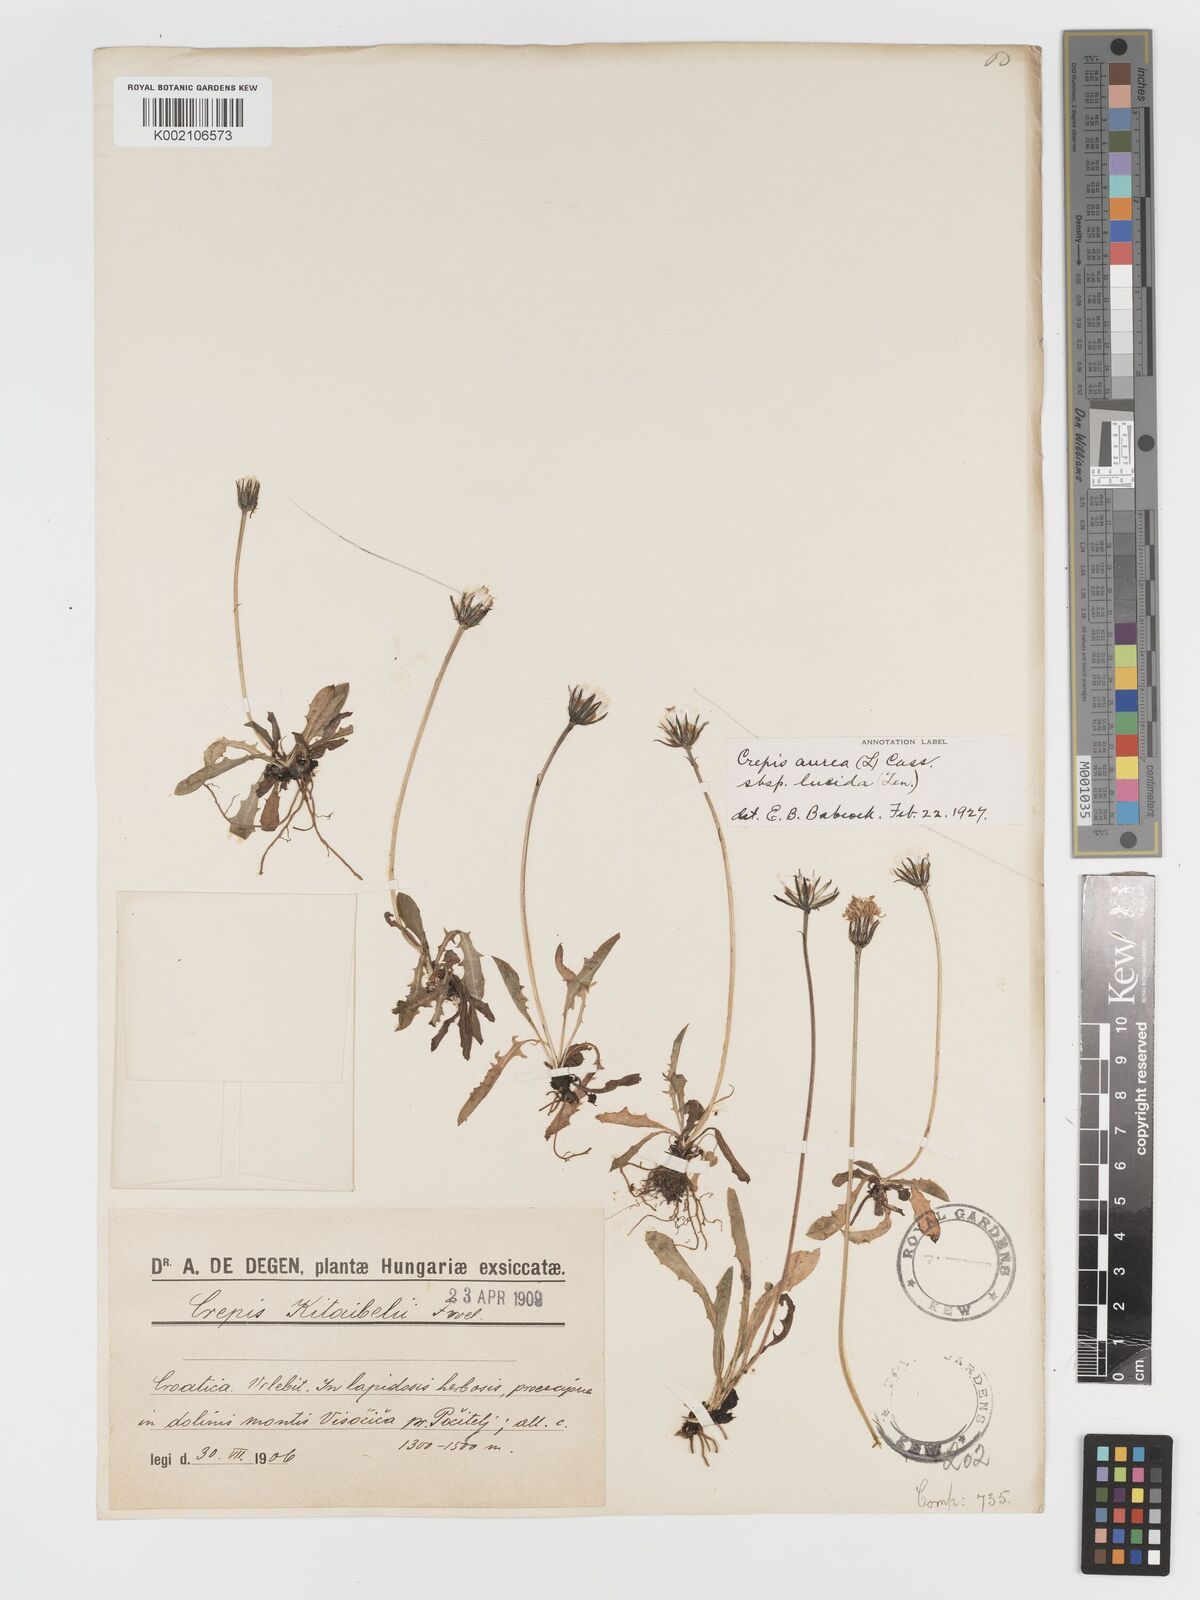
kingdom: Plantae
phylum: Tracheophyta
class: Magnoliopsida
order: Asterales
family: Asteraceae
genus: Crepis
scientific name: Crepis aurea
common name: Golden hawk's-beard
